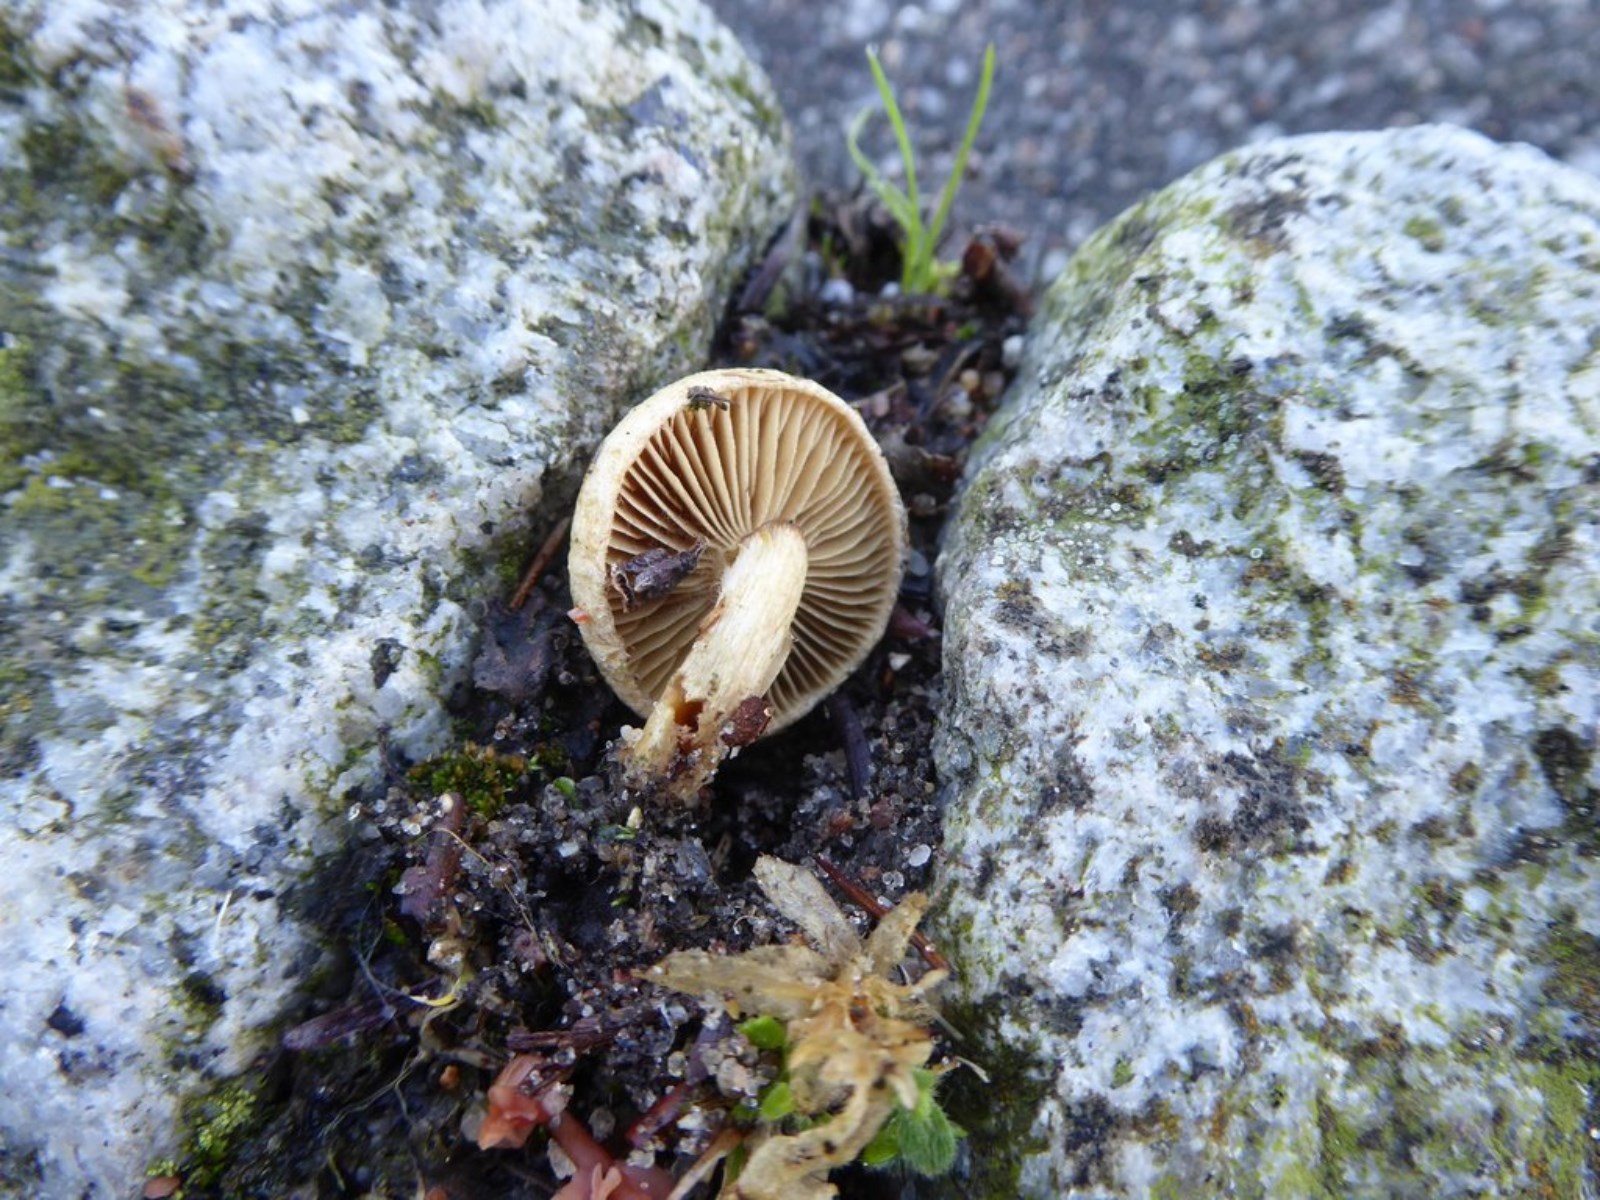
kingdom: Fungi
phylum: Basidiomycota
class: Agaricomycetes
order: Agaricales
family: Inocybaceae
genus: Inocybe
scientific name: Inocybe
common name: trævlhat
